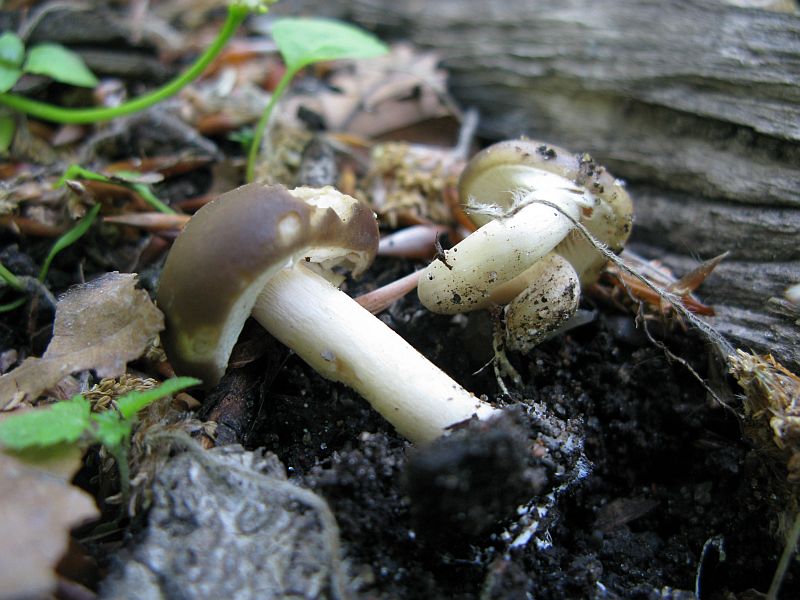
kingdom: Fungi
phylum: Basidiomycota
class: Agaricomycetes
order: Agaricales
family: Strophariaceae
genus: Agrocybe
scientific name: Agrocybe praecox
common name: tidlig agerhat
